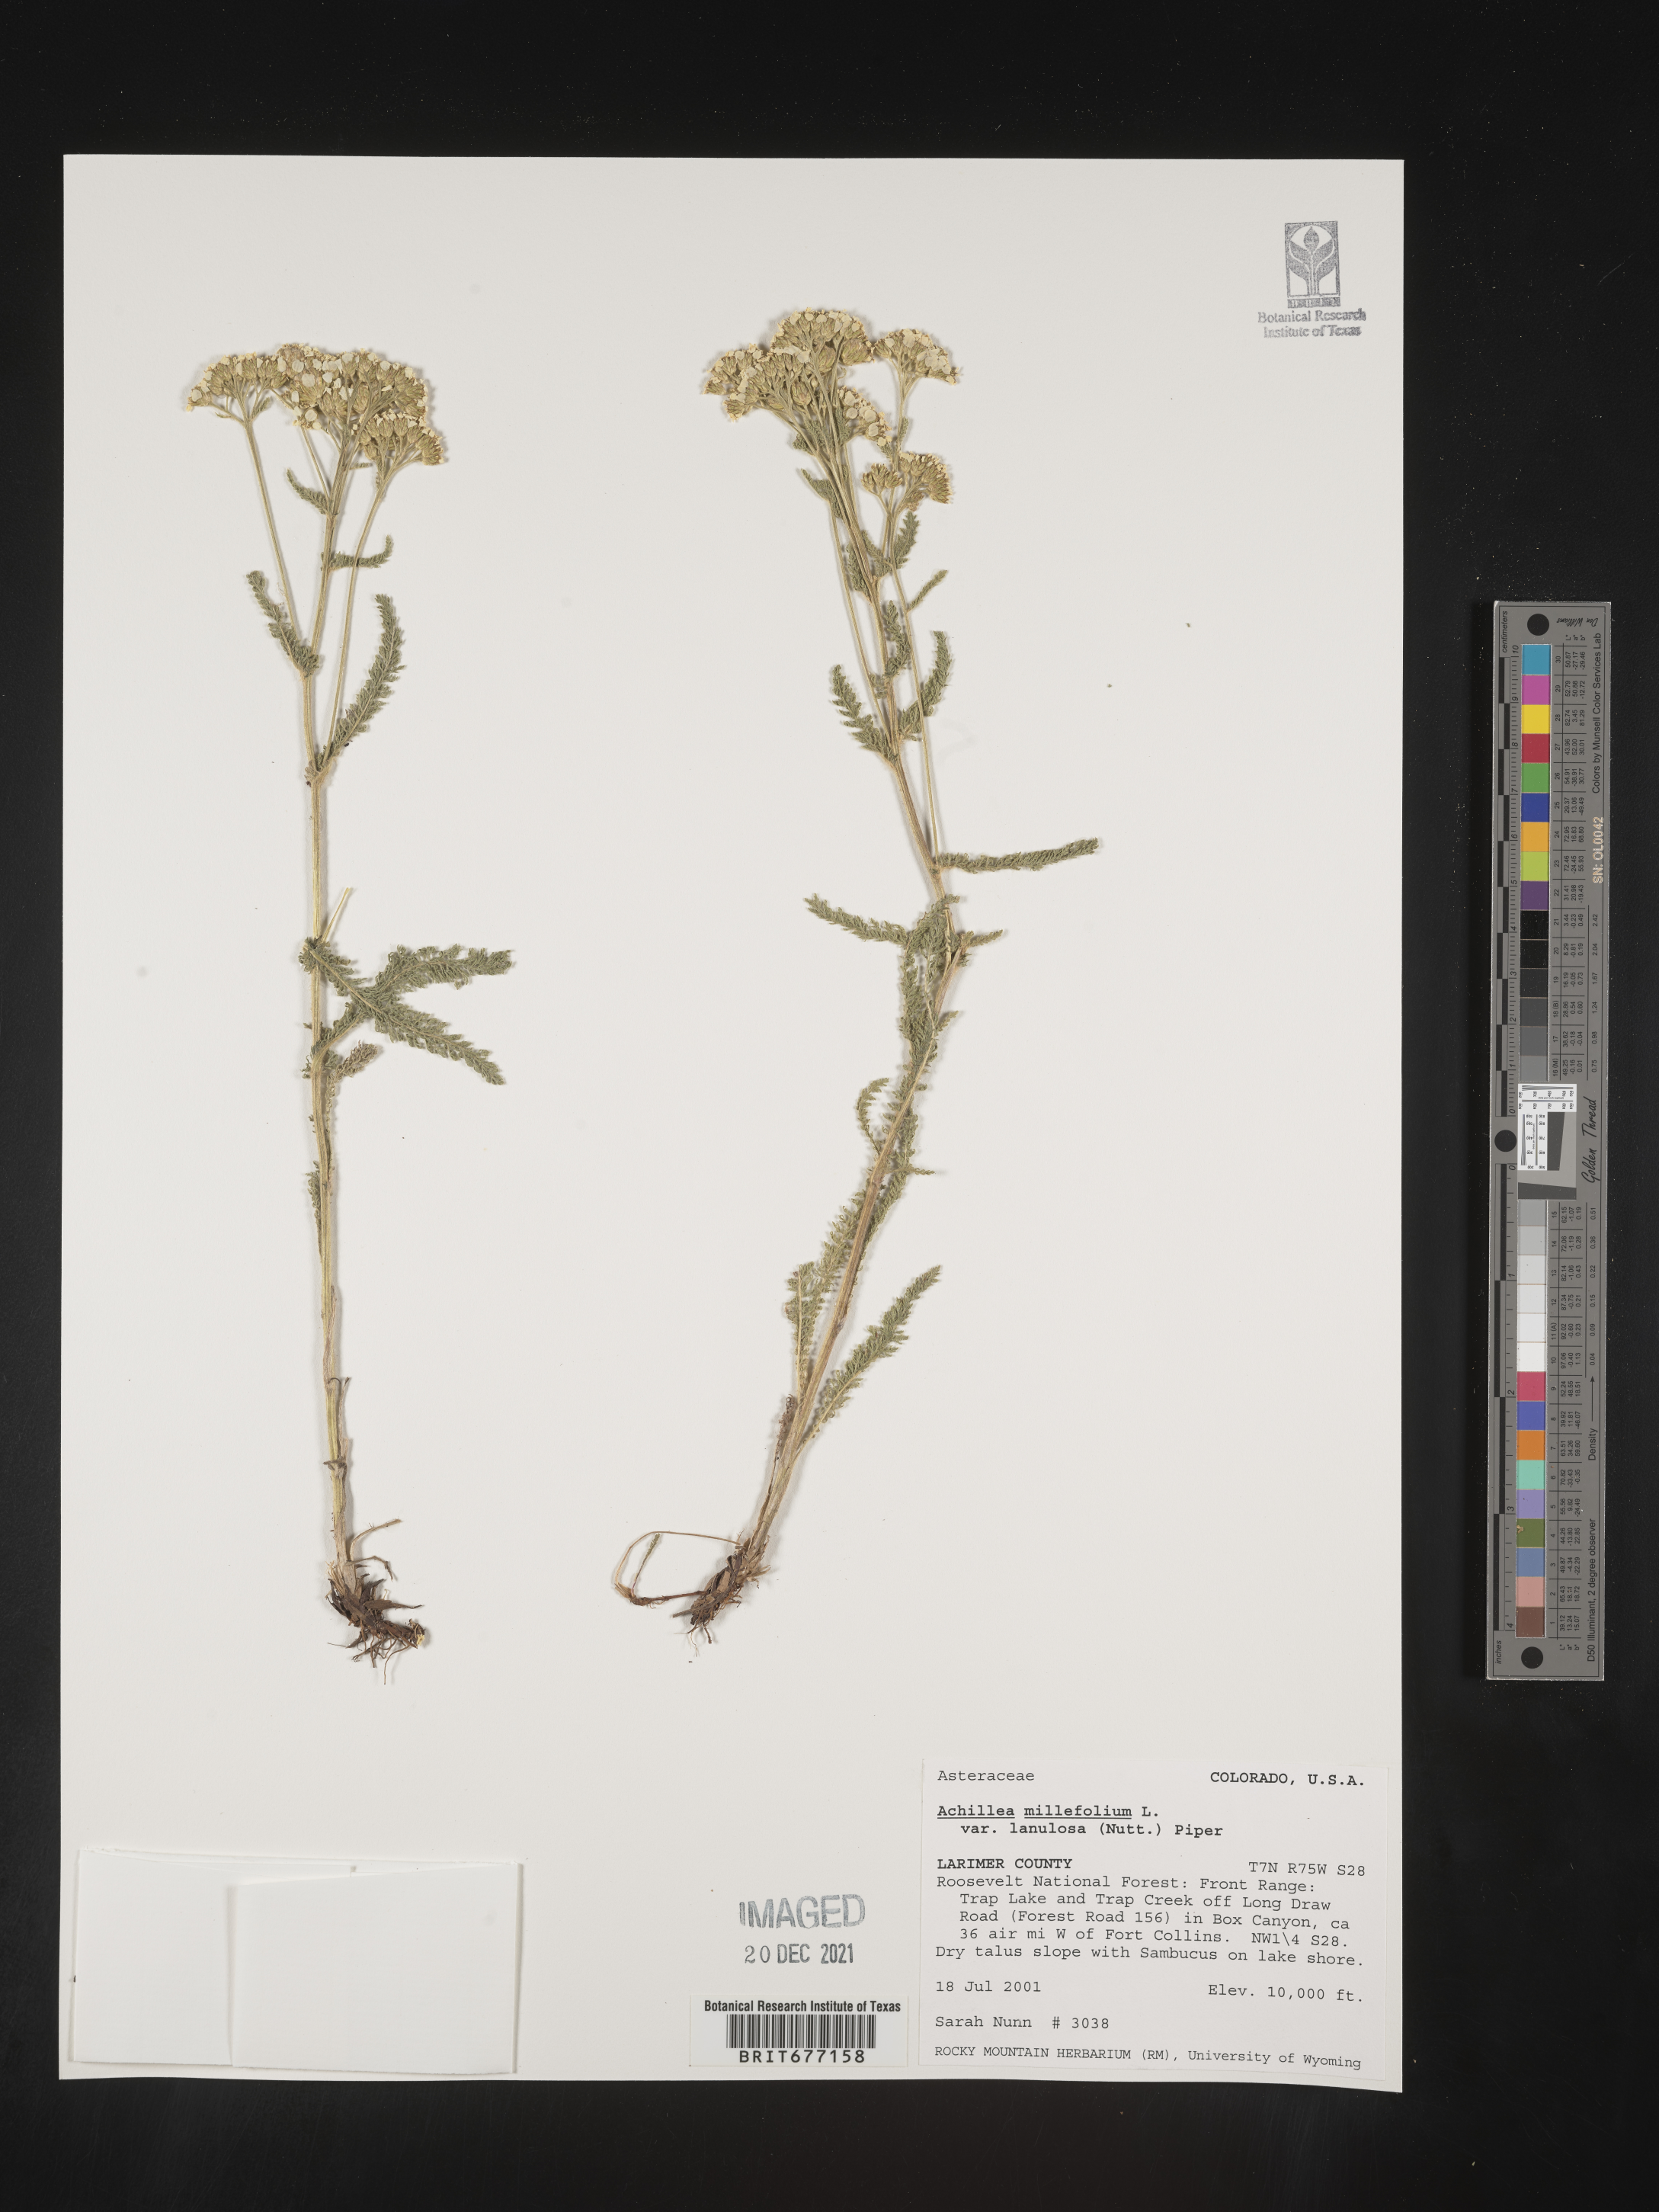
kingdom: Plantae
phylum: Tracheophyta
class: Magnoliopsida
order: Asterales
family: Asteraceae
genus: Achillea
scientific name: Achillea millefolium
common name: Yarrow
